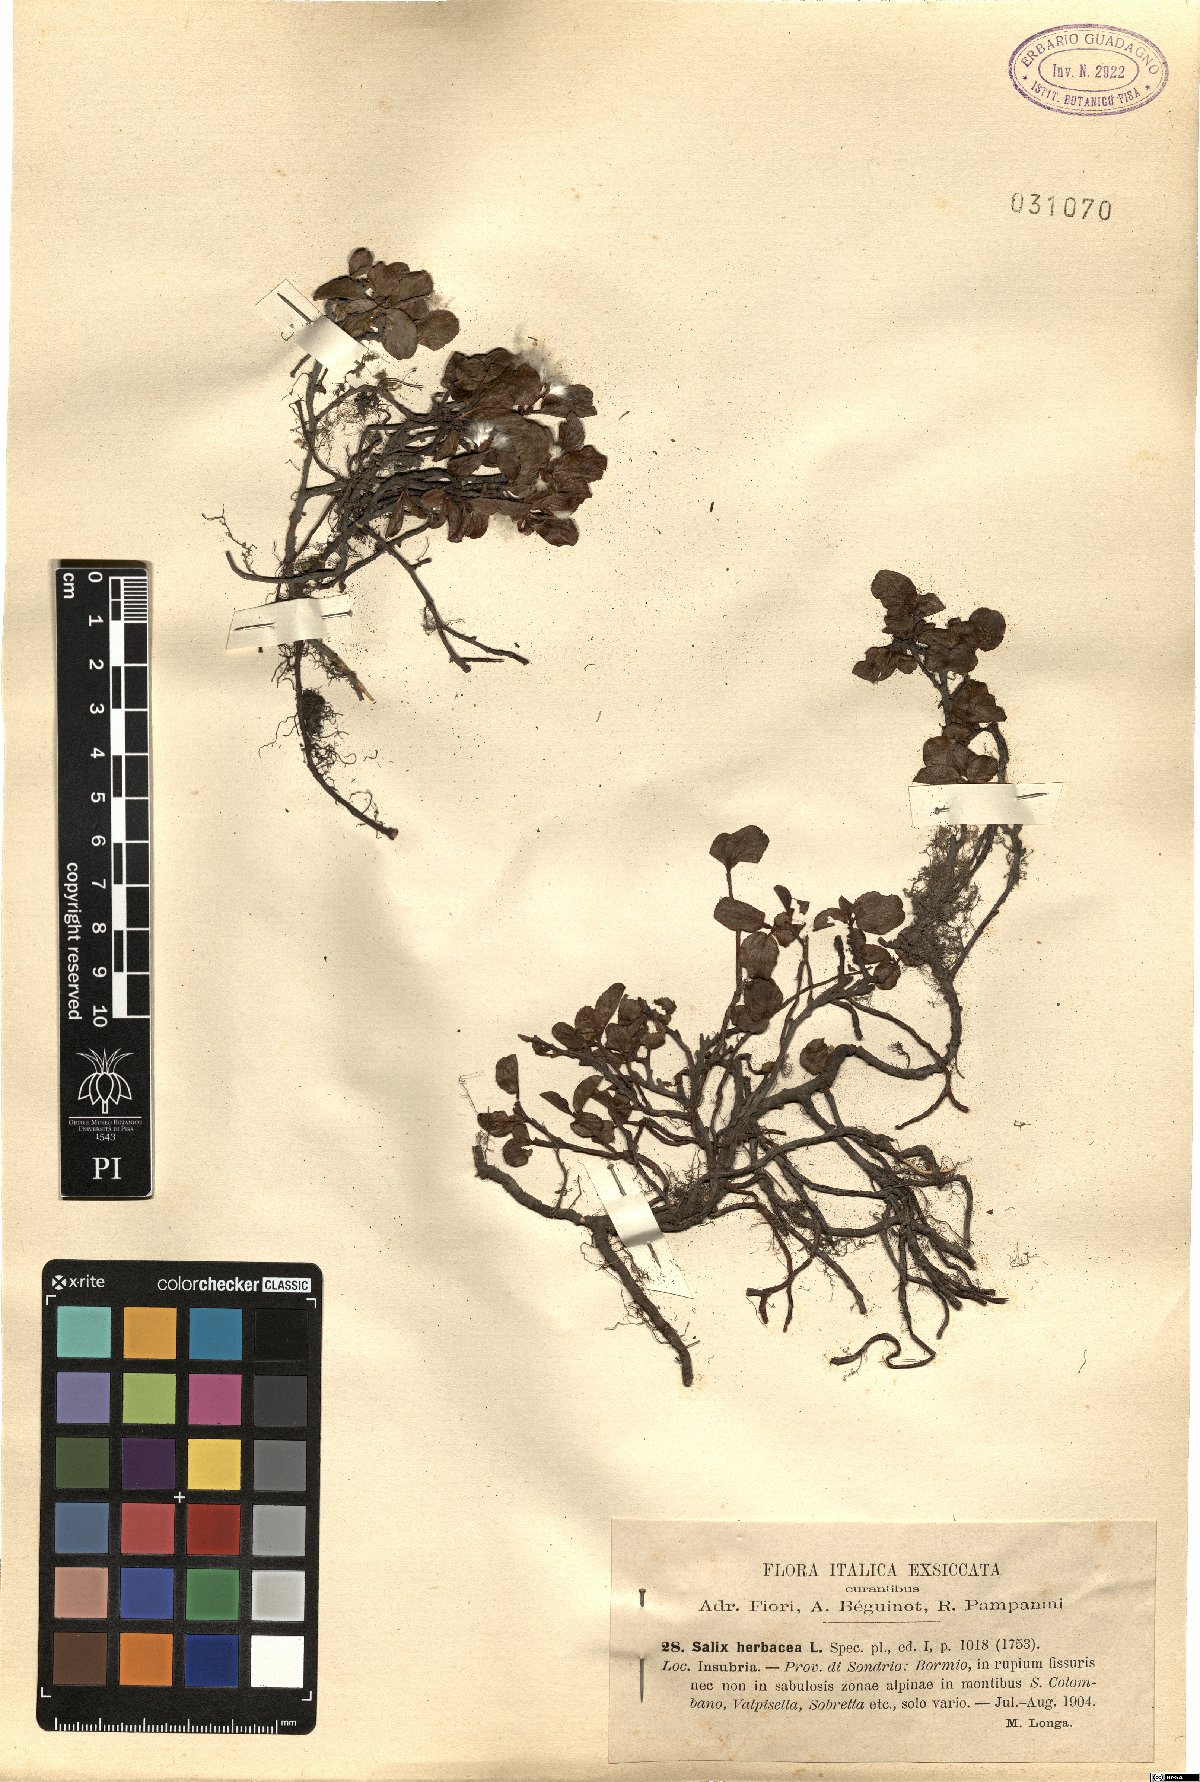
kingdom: Plantae
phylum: Tracheophyta
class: Magnoliopsida
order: Malpighiales
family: Salicaceae
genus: Salix
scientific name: Salix herbacea
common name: Dwarf willow
